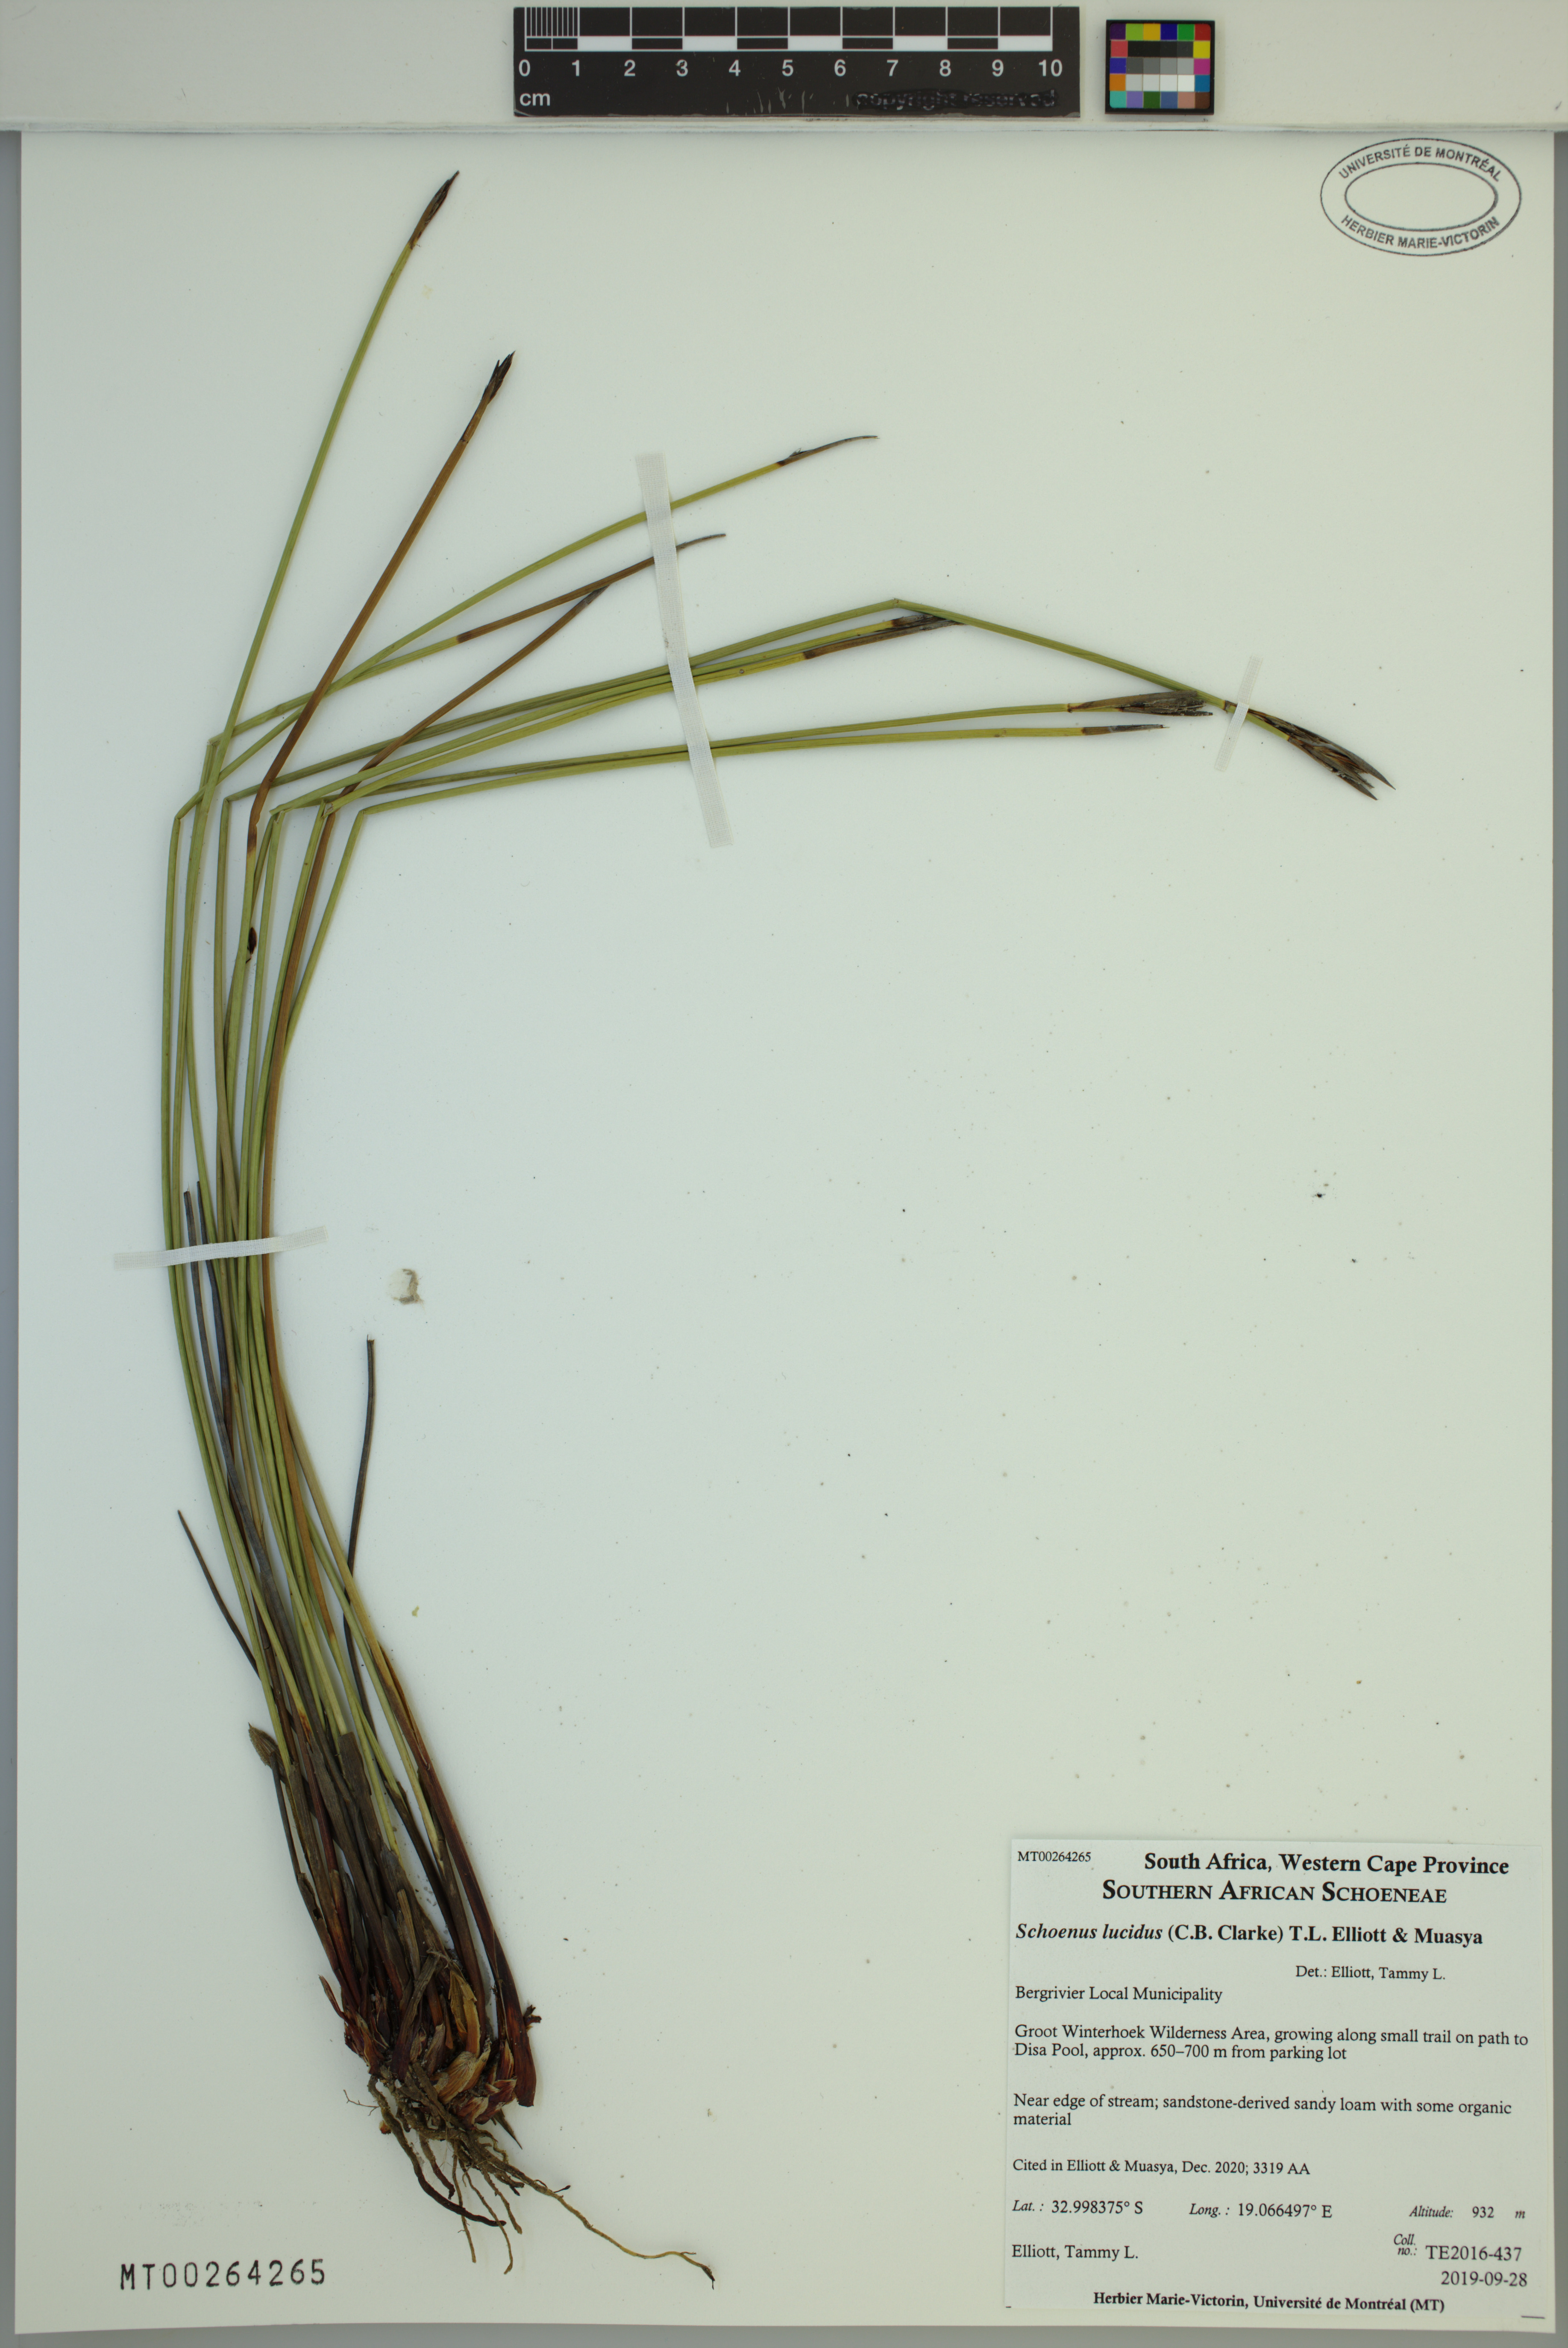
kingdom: Plantae
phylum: Tracheophyta
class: Liliopsida
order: Poales
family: Cyperaceae
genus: Schoenus
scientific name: Schoenus lucidus
